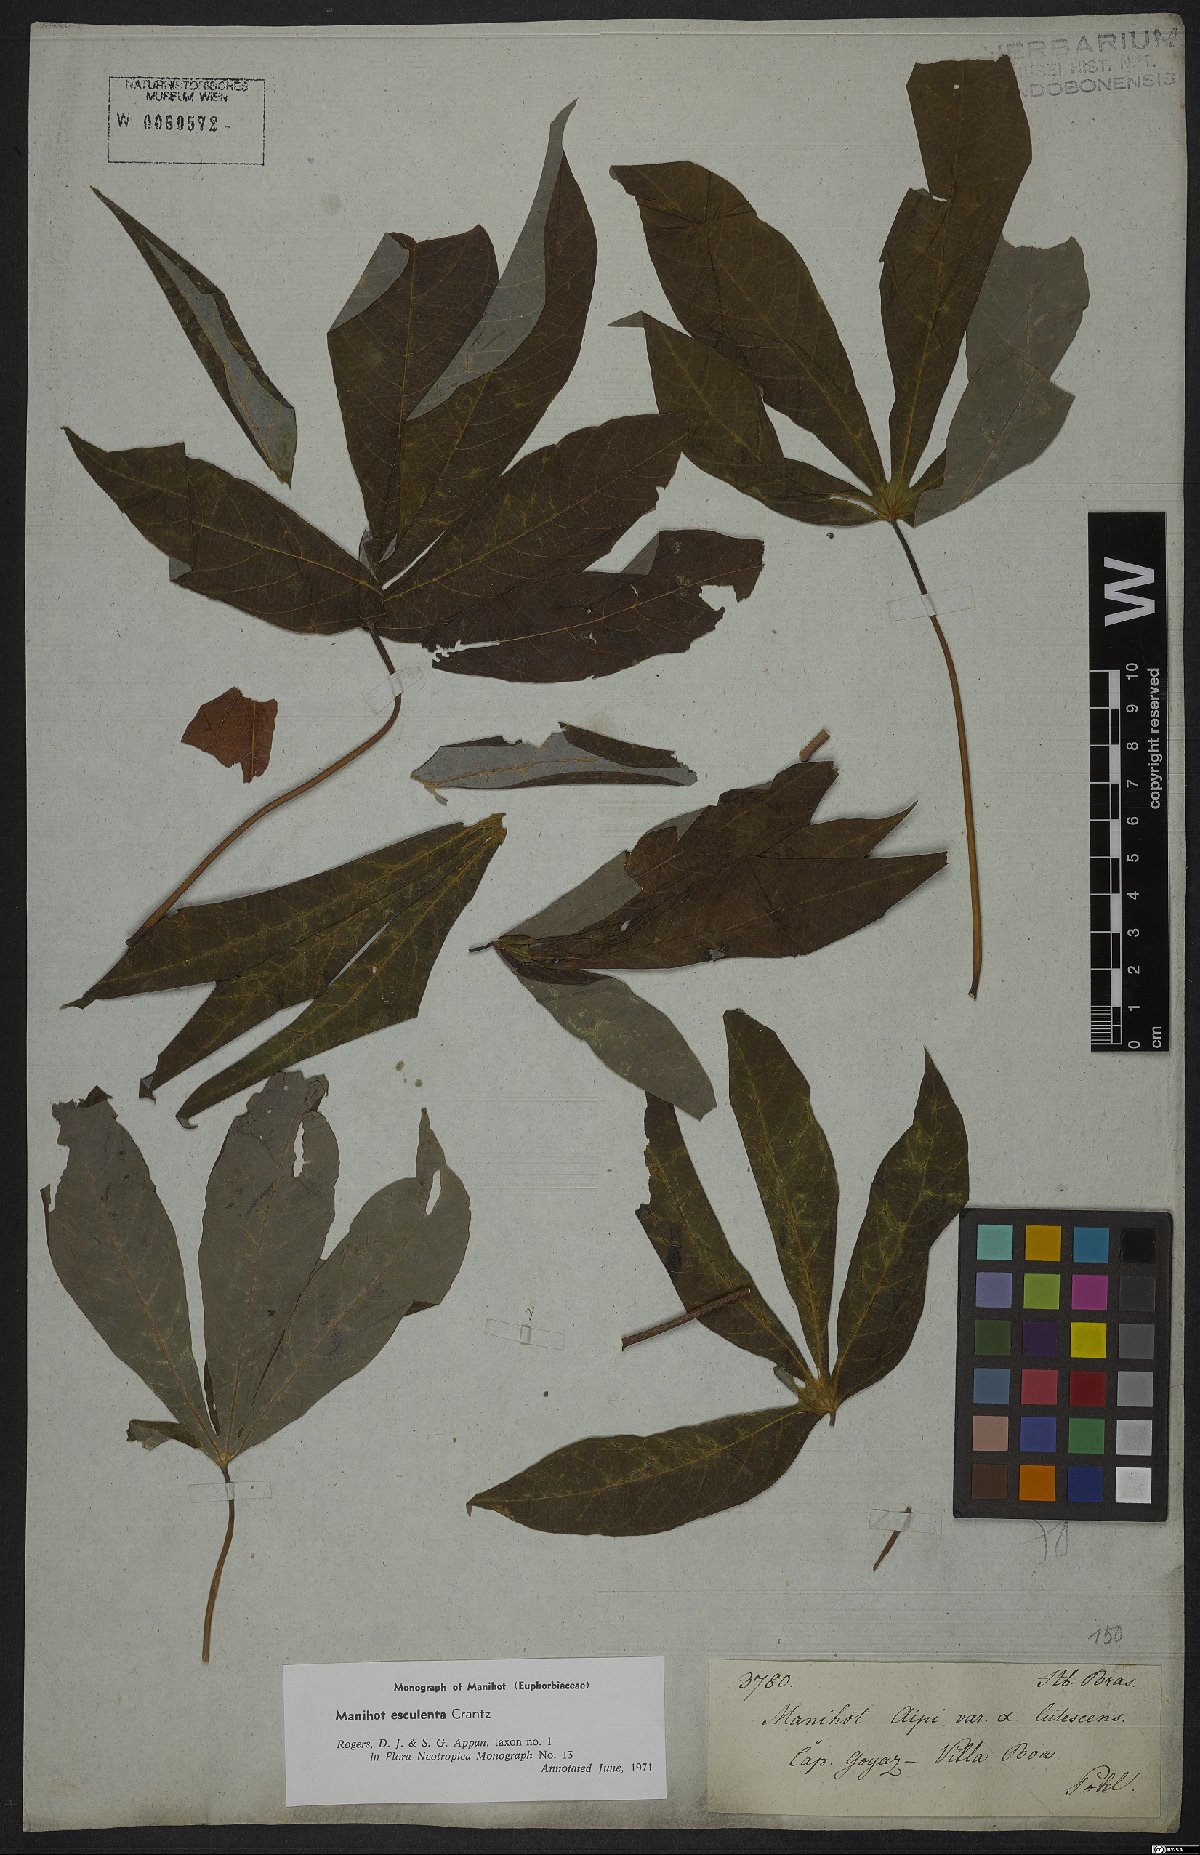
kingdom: Plantae
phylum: Tracheophyta
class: Magnoliopsida
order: Malpighiales
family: Euphorbiaceae
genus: Manihot
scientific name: Manihot esculenta
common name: Cassava
